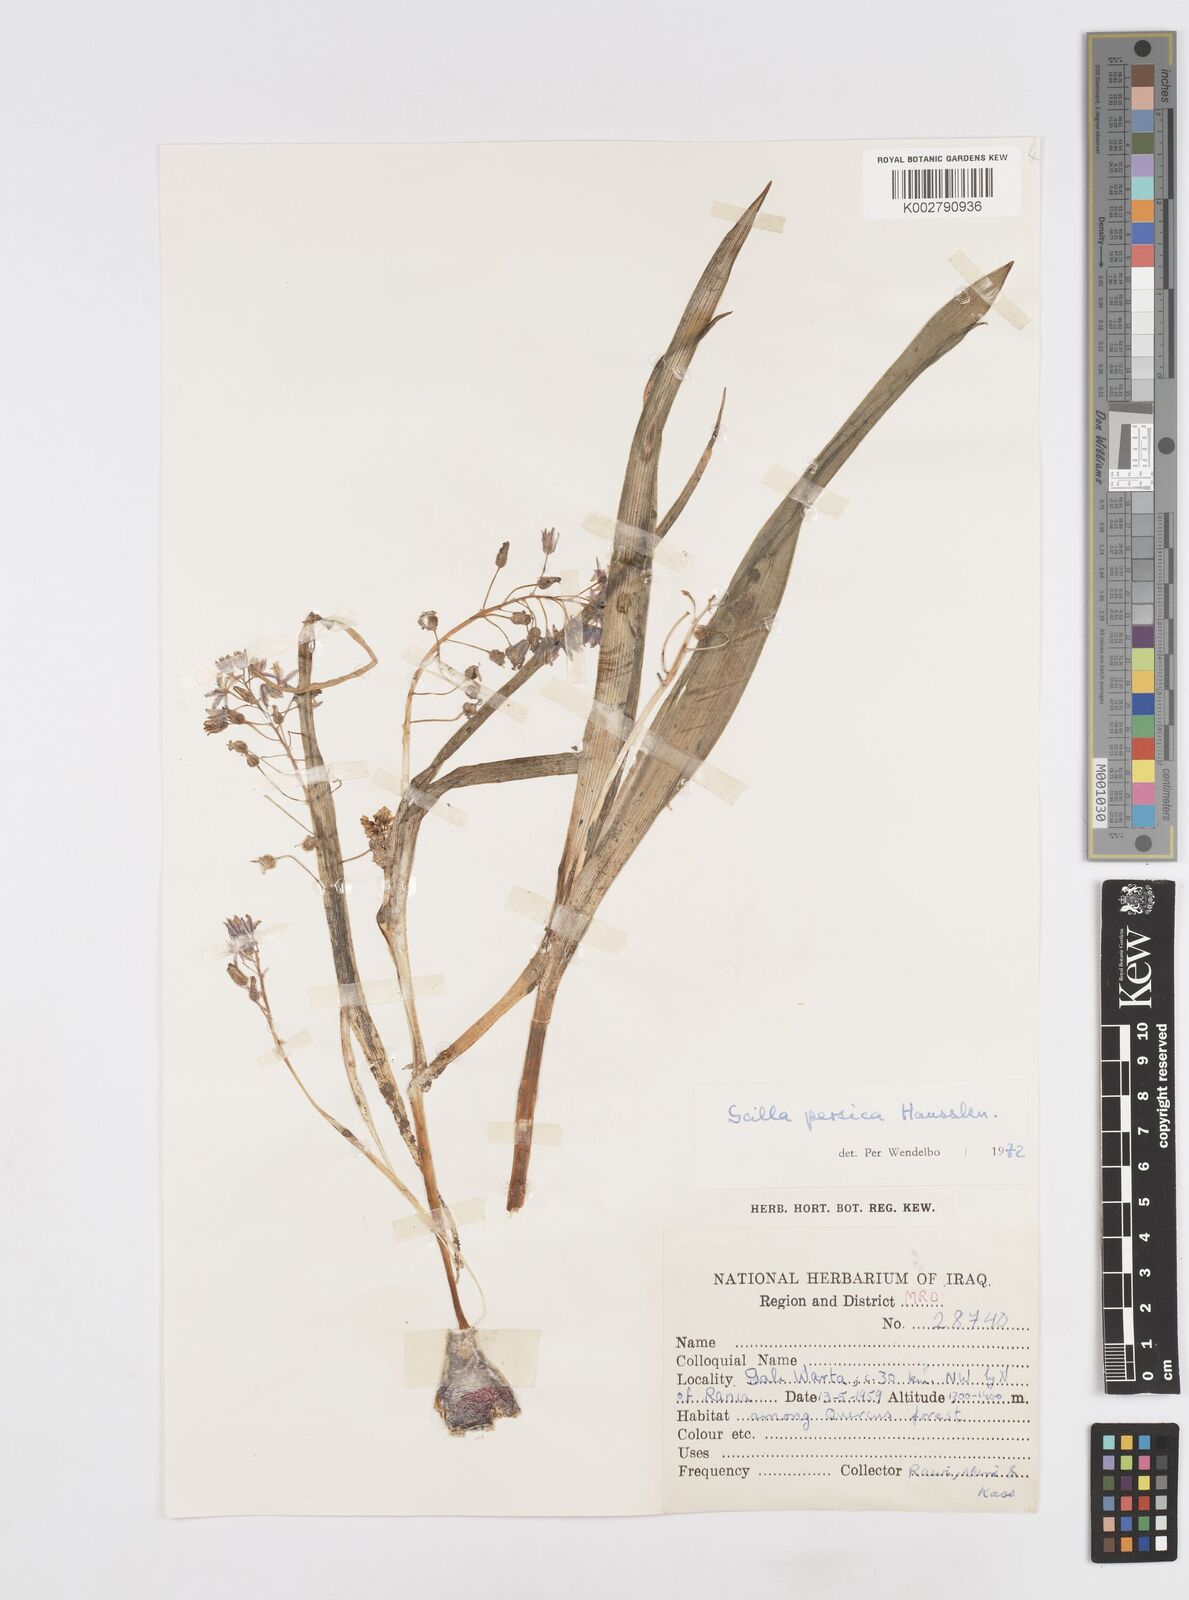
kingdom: Plantae
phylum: Tracheophyta
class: Liliopsida
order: Asparagales
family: Asparagaceae
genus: Zagrosia
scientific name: Zagrosia persica
